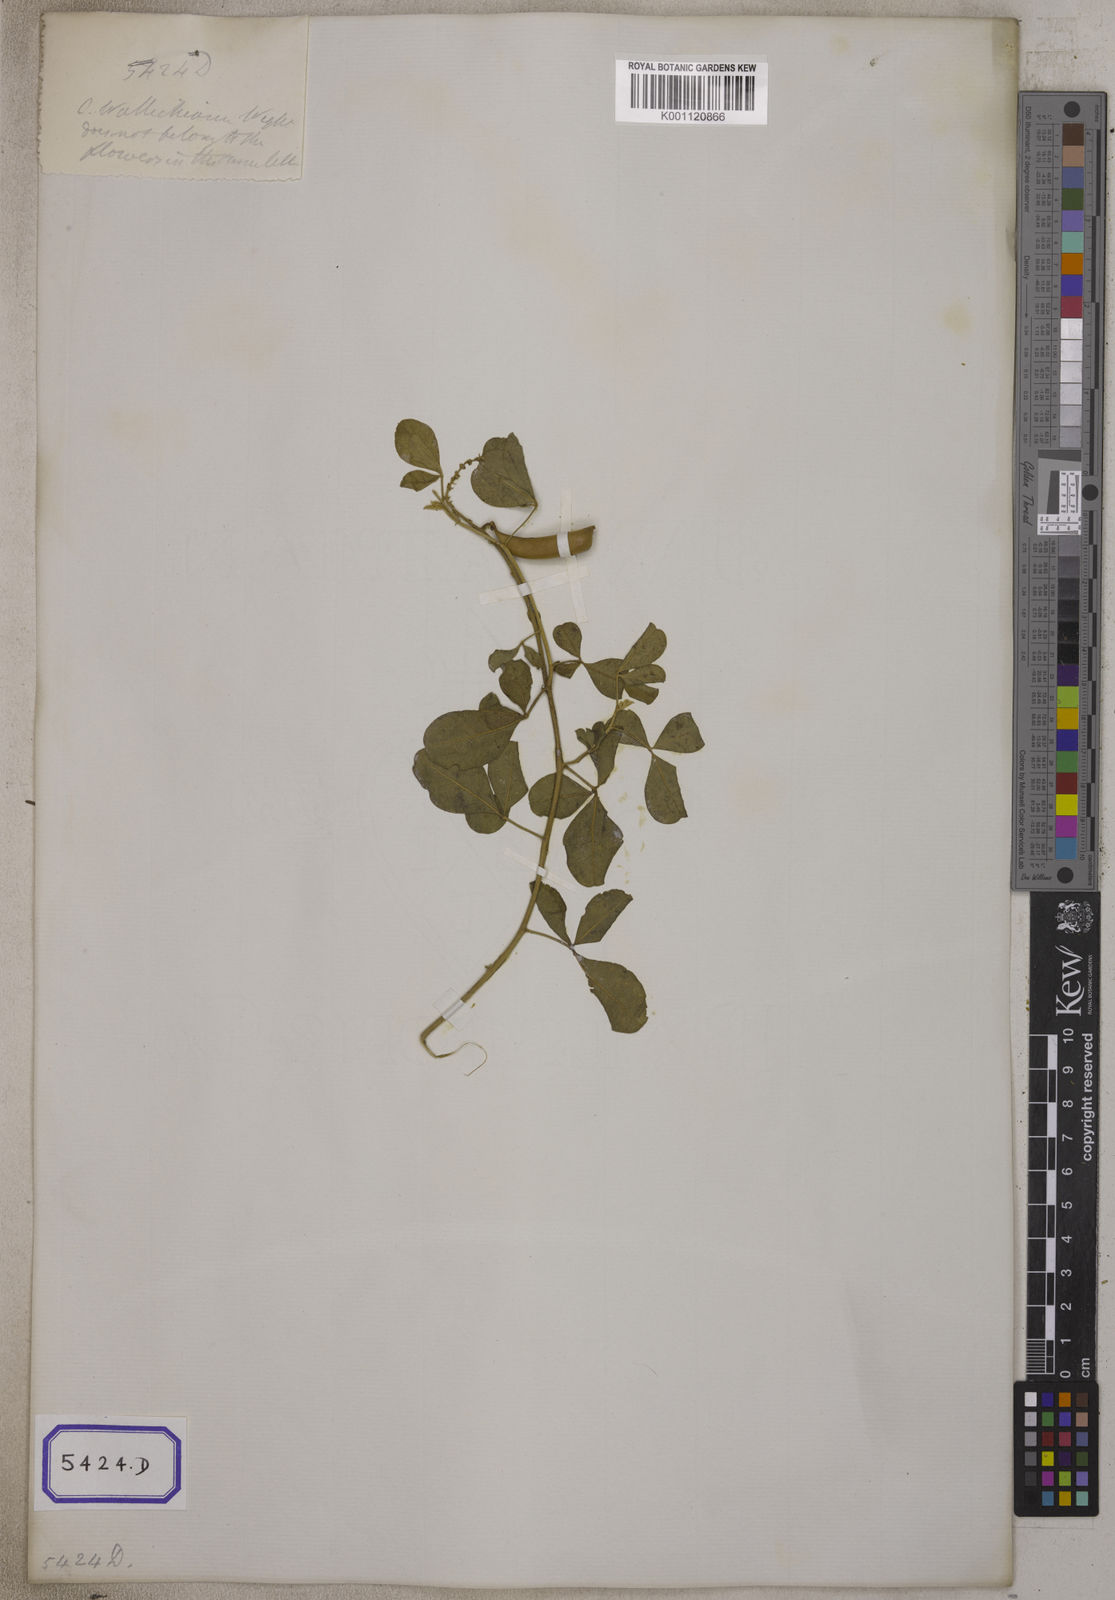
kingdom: Plantae
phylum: Tracheophyta
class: Magnoliopsida
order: Fabales
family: Fabaceae
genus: Crotalaria
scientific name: Crotalaria laburnifolia
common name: Birdflower
